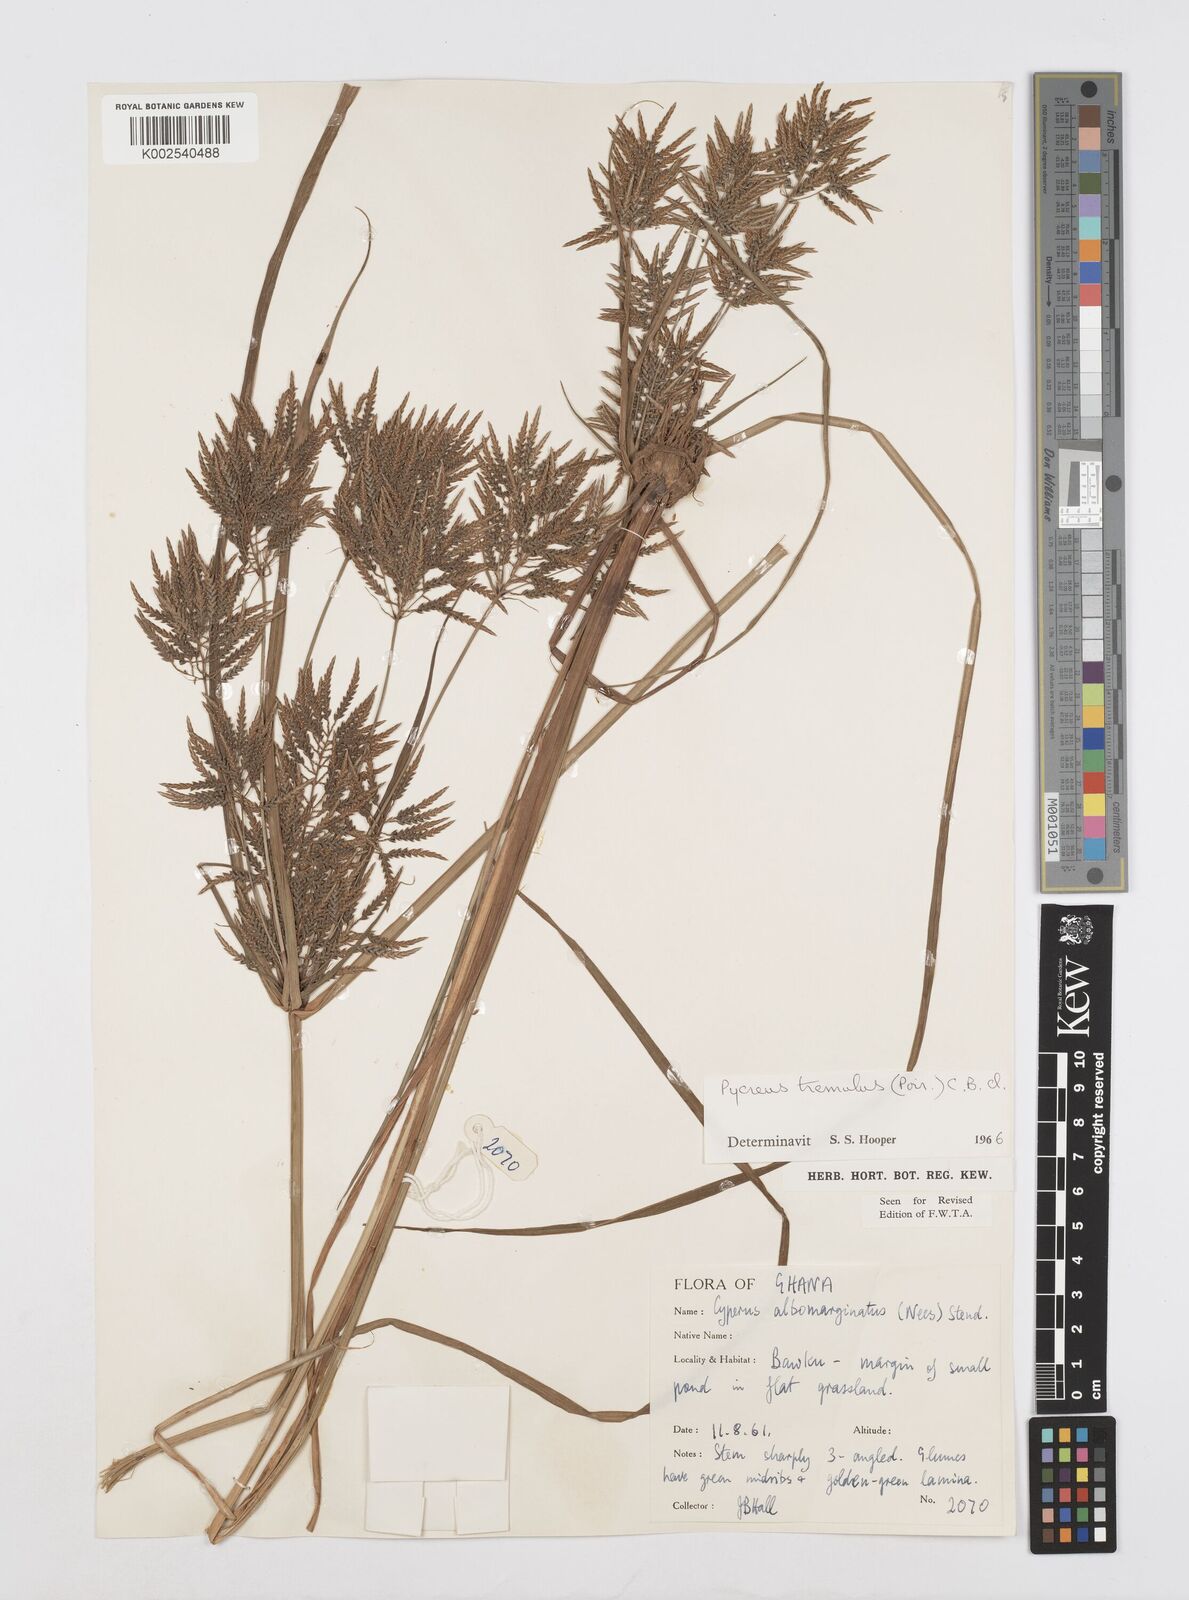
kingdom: Plantae
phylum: Tracheophyta
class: Liliopsida
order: Poales
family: Cyperaceae
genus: Cyperus
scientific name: Cyperus macrostachyos
